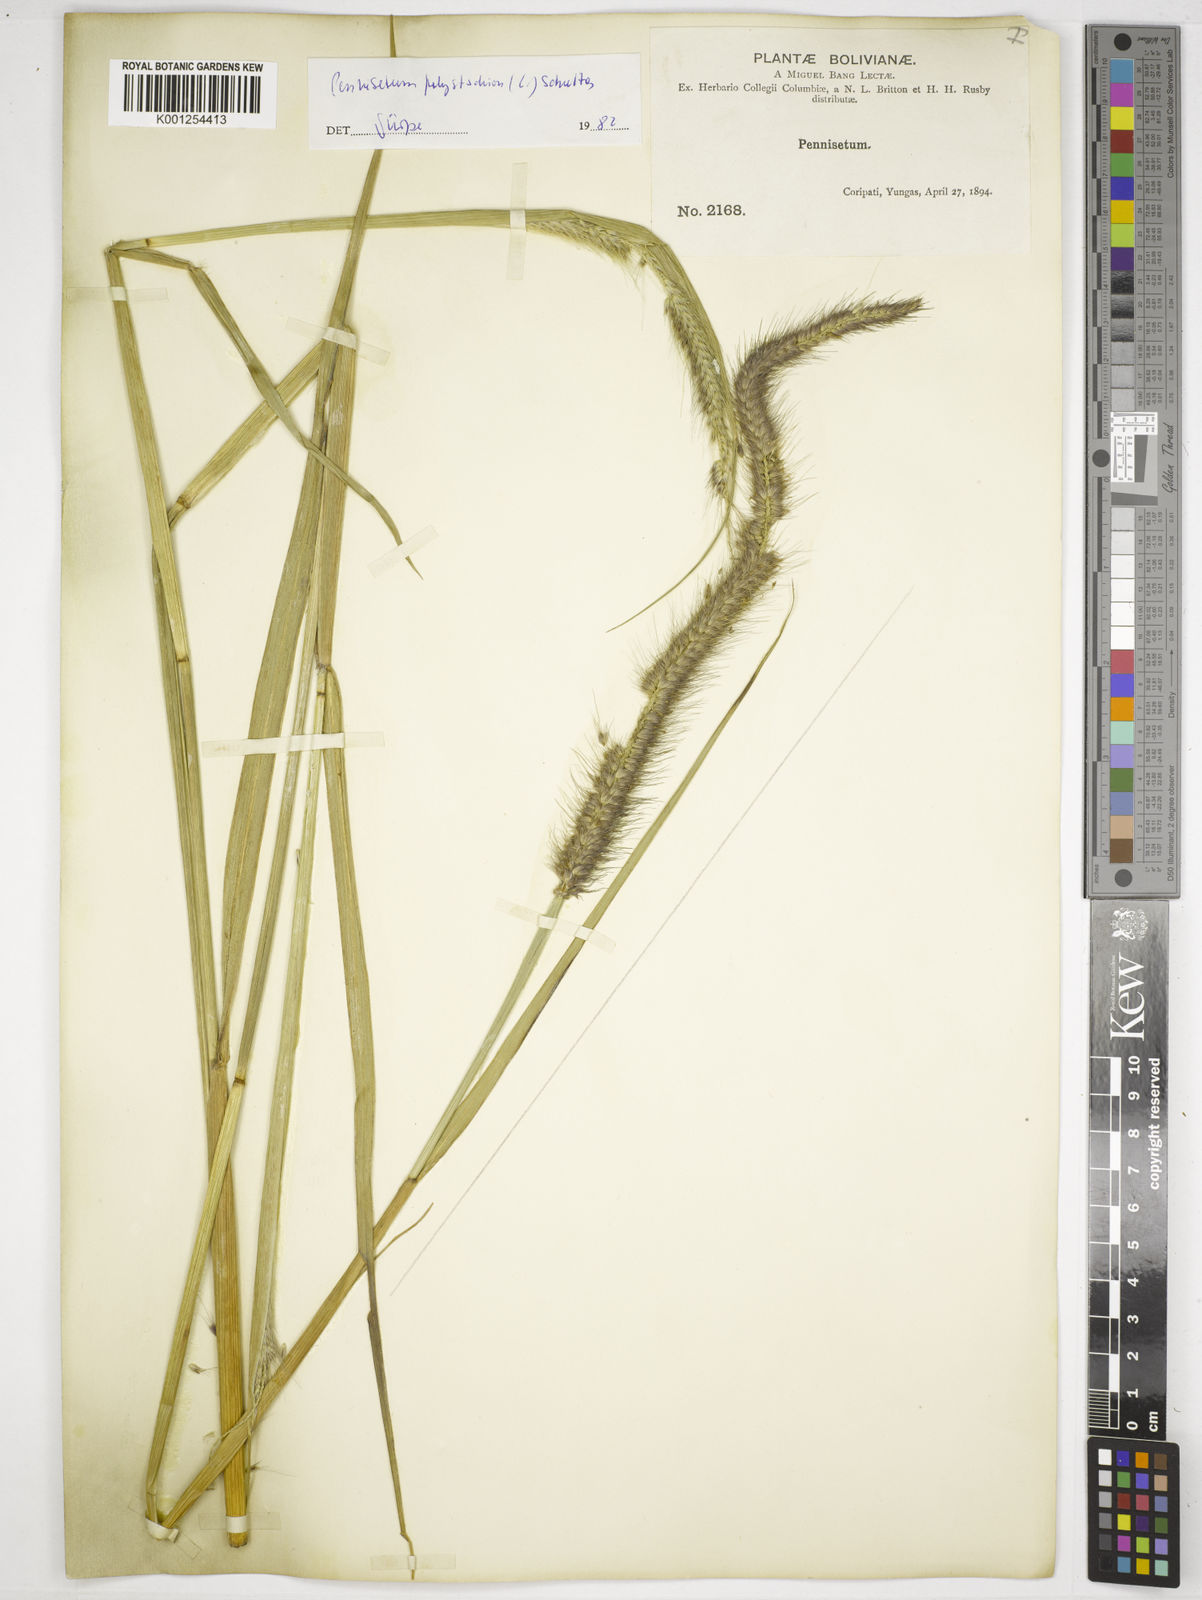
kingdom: Plantae
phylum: Tracheophyta
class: Liliopsida
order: Poales
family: Poaceae
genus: Setaria
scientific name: Setaria parviflora
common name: Knotroot bristle-grass
